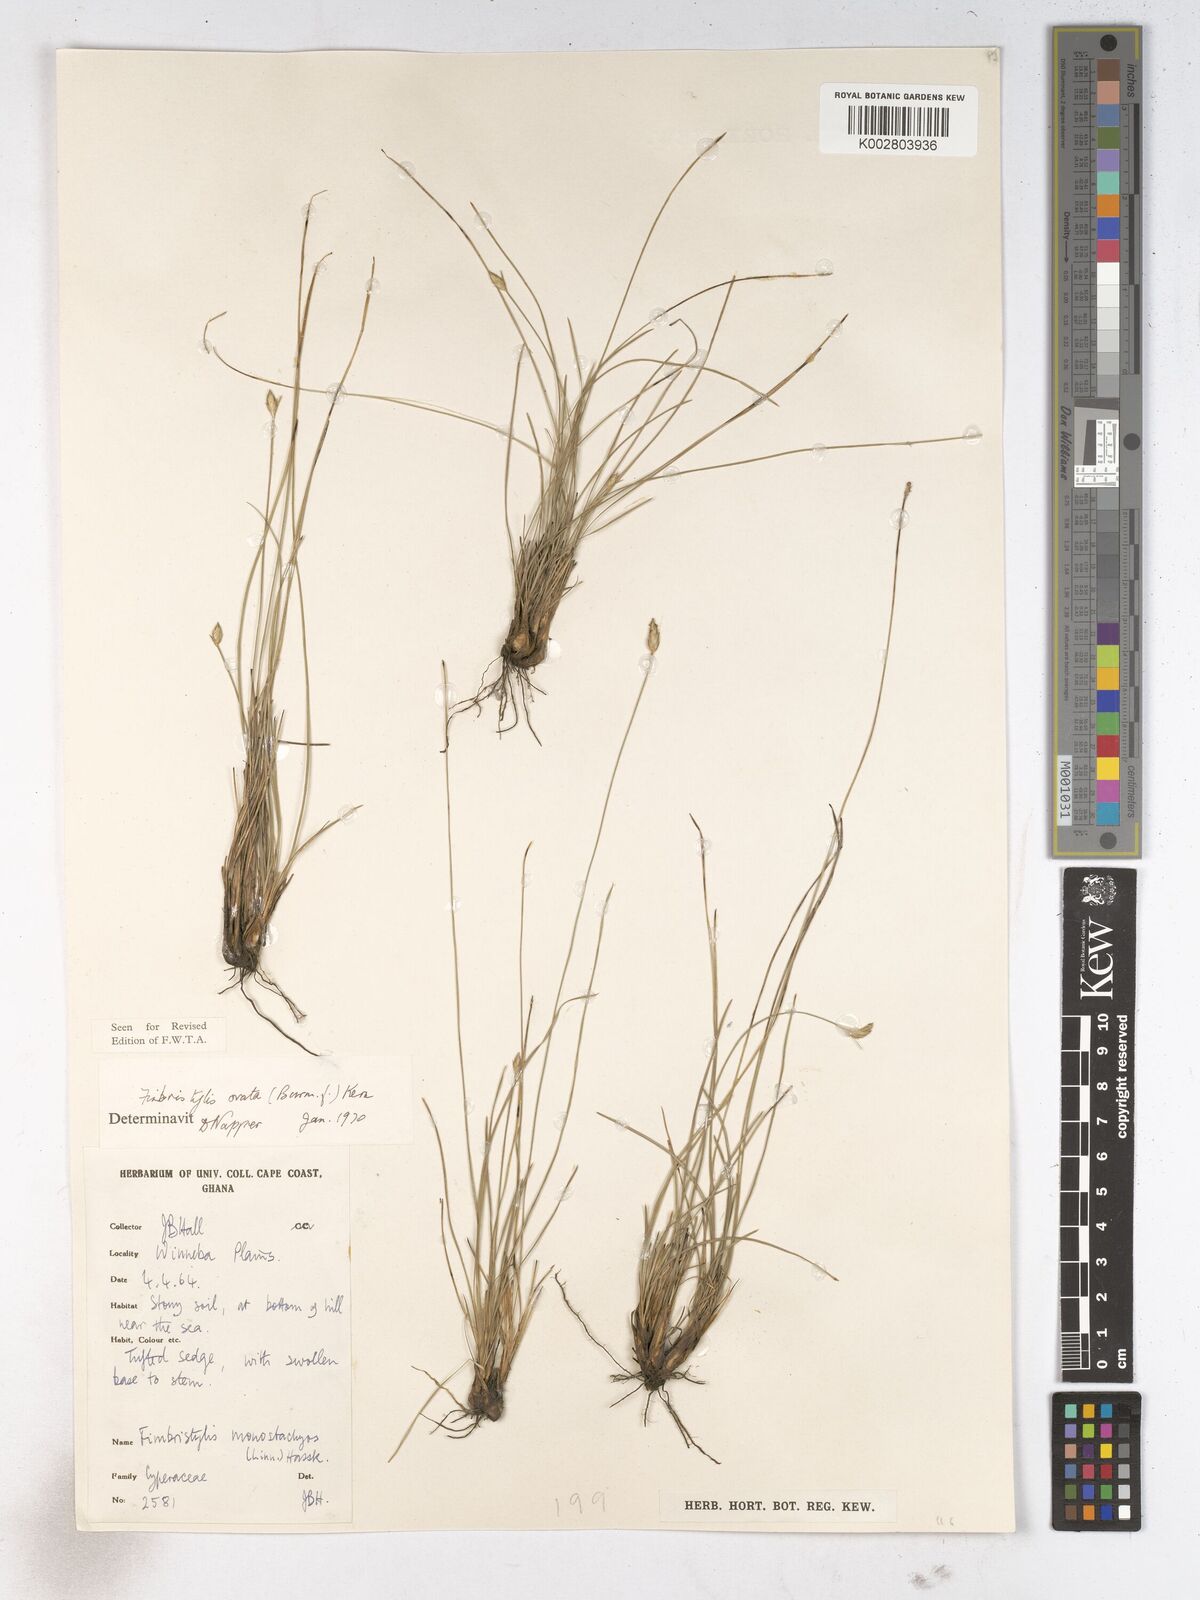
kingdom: Plantae
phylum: Tracheophyta
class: Liliopsida
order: Poales
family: Cyperaceae
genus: Abildgaardia
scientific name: Abildgaardia ovata
